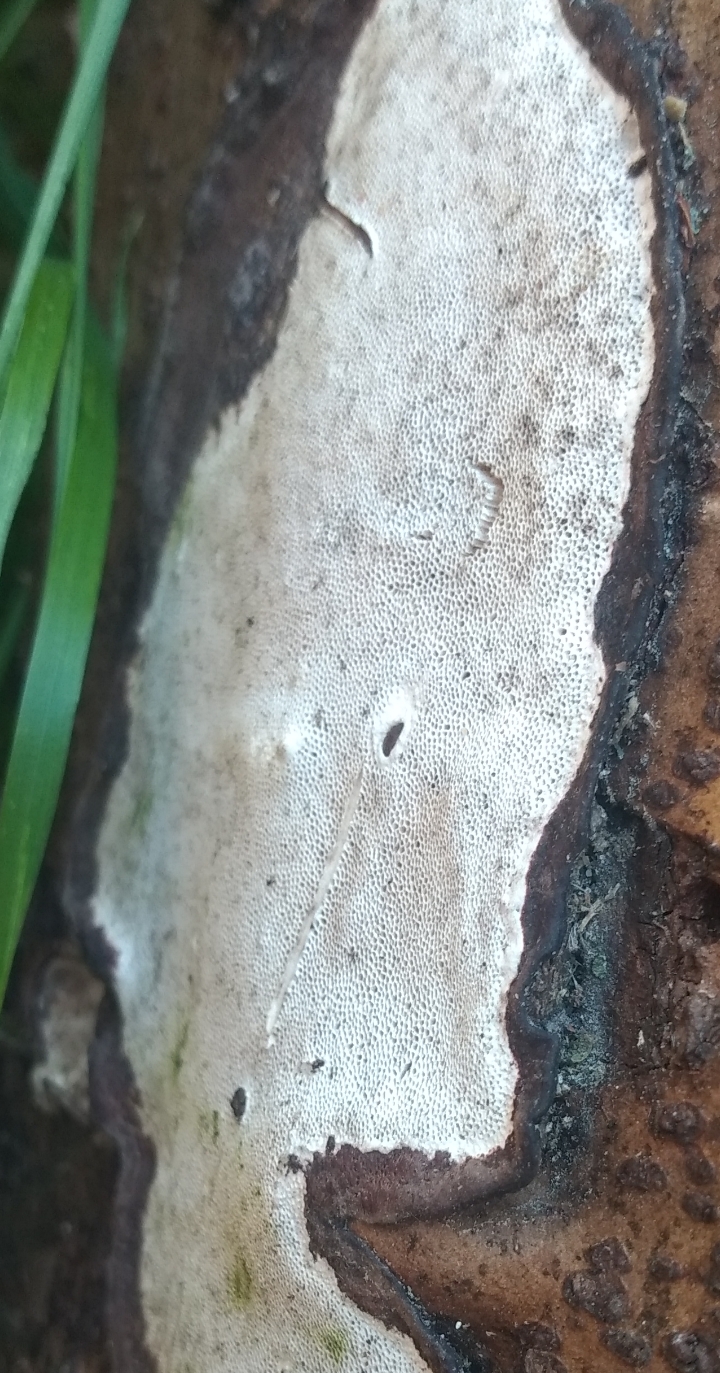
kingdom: Fungi
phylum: Basidiomycota
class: Agaricomycetes
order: Polyporales
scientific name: Polyporales
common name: poresvampordenen
